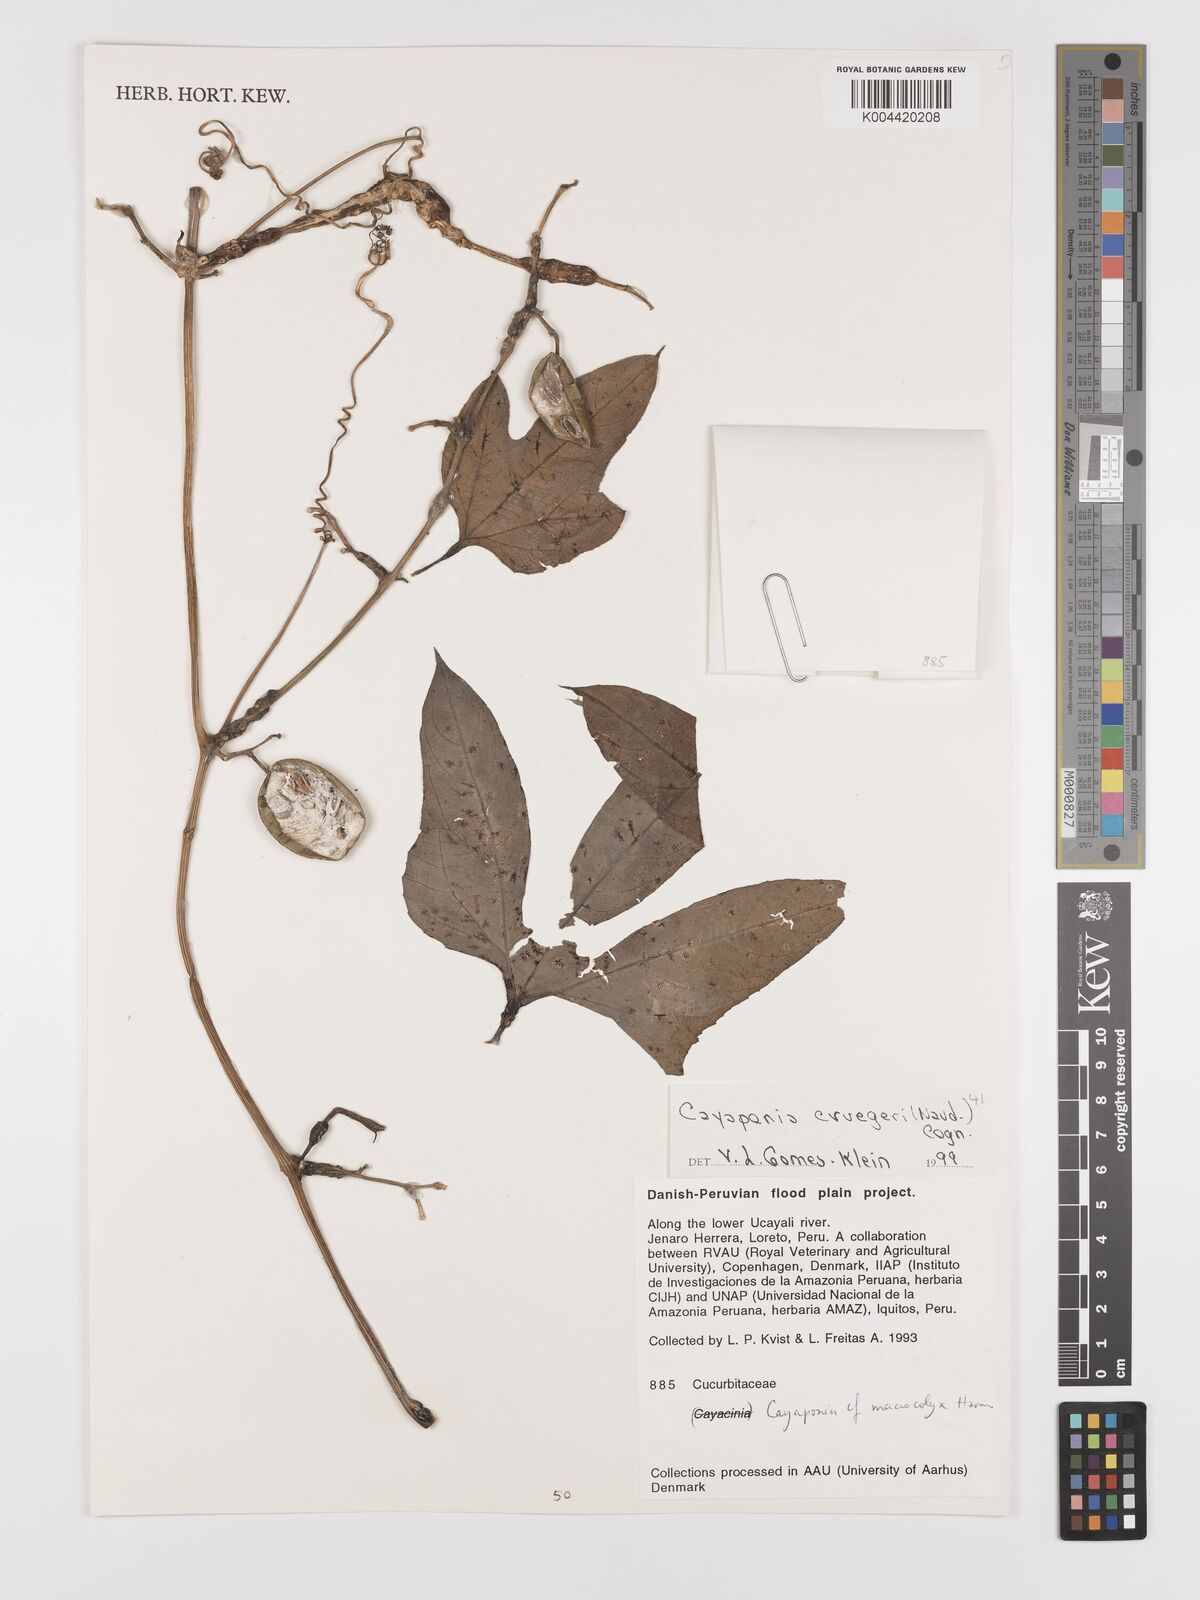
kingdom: Plantae
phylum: Tracheophyta
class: Magnoliopsida
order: Cucurbitales
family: Cucurbitaceae
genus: Cayaponia
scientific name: Cayaponia cruegeri
